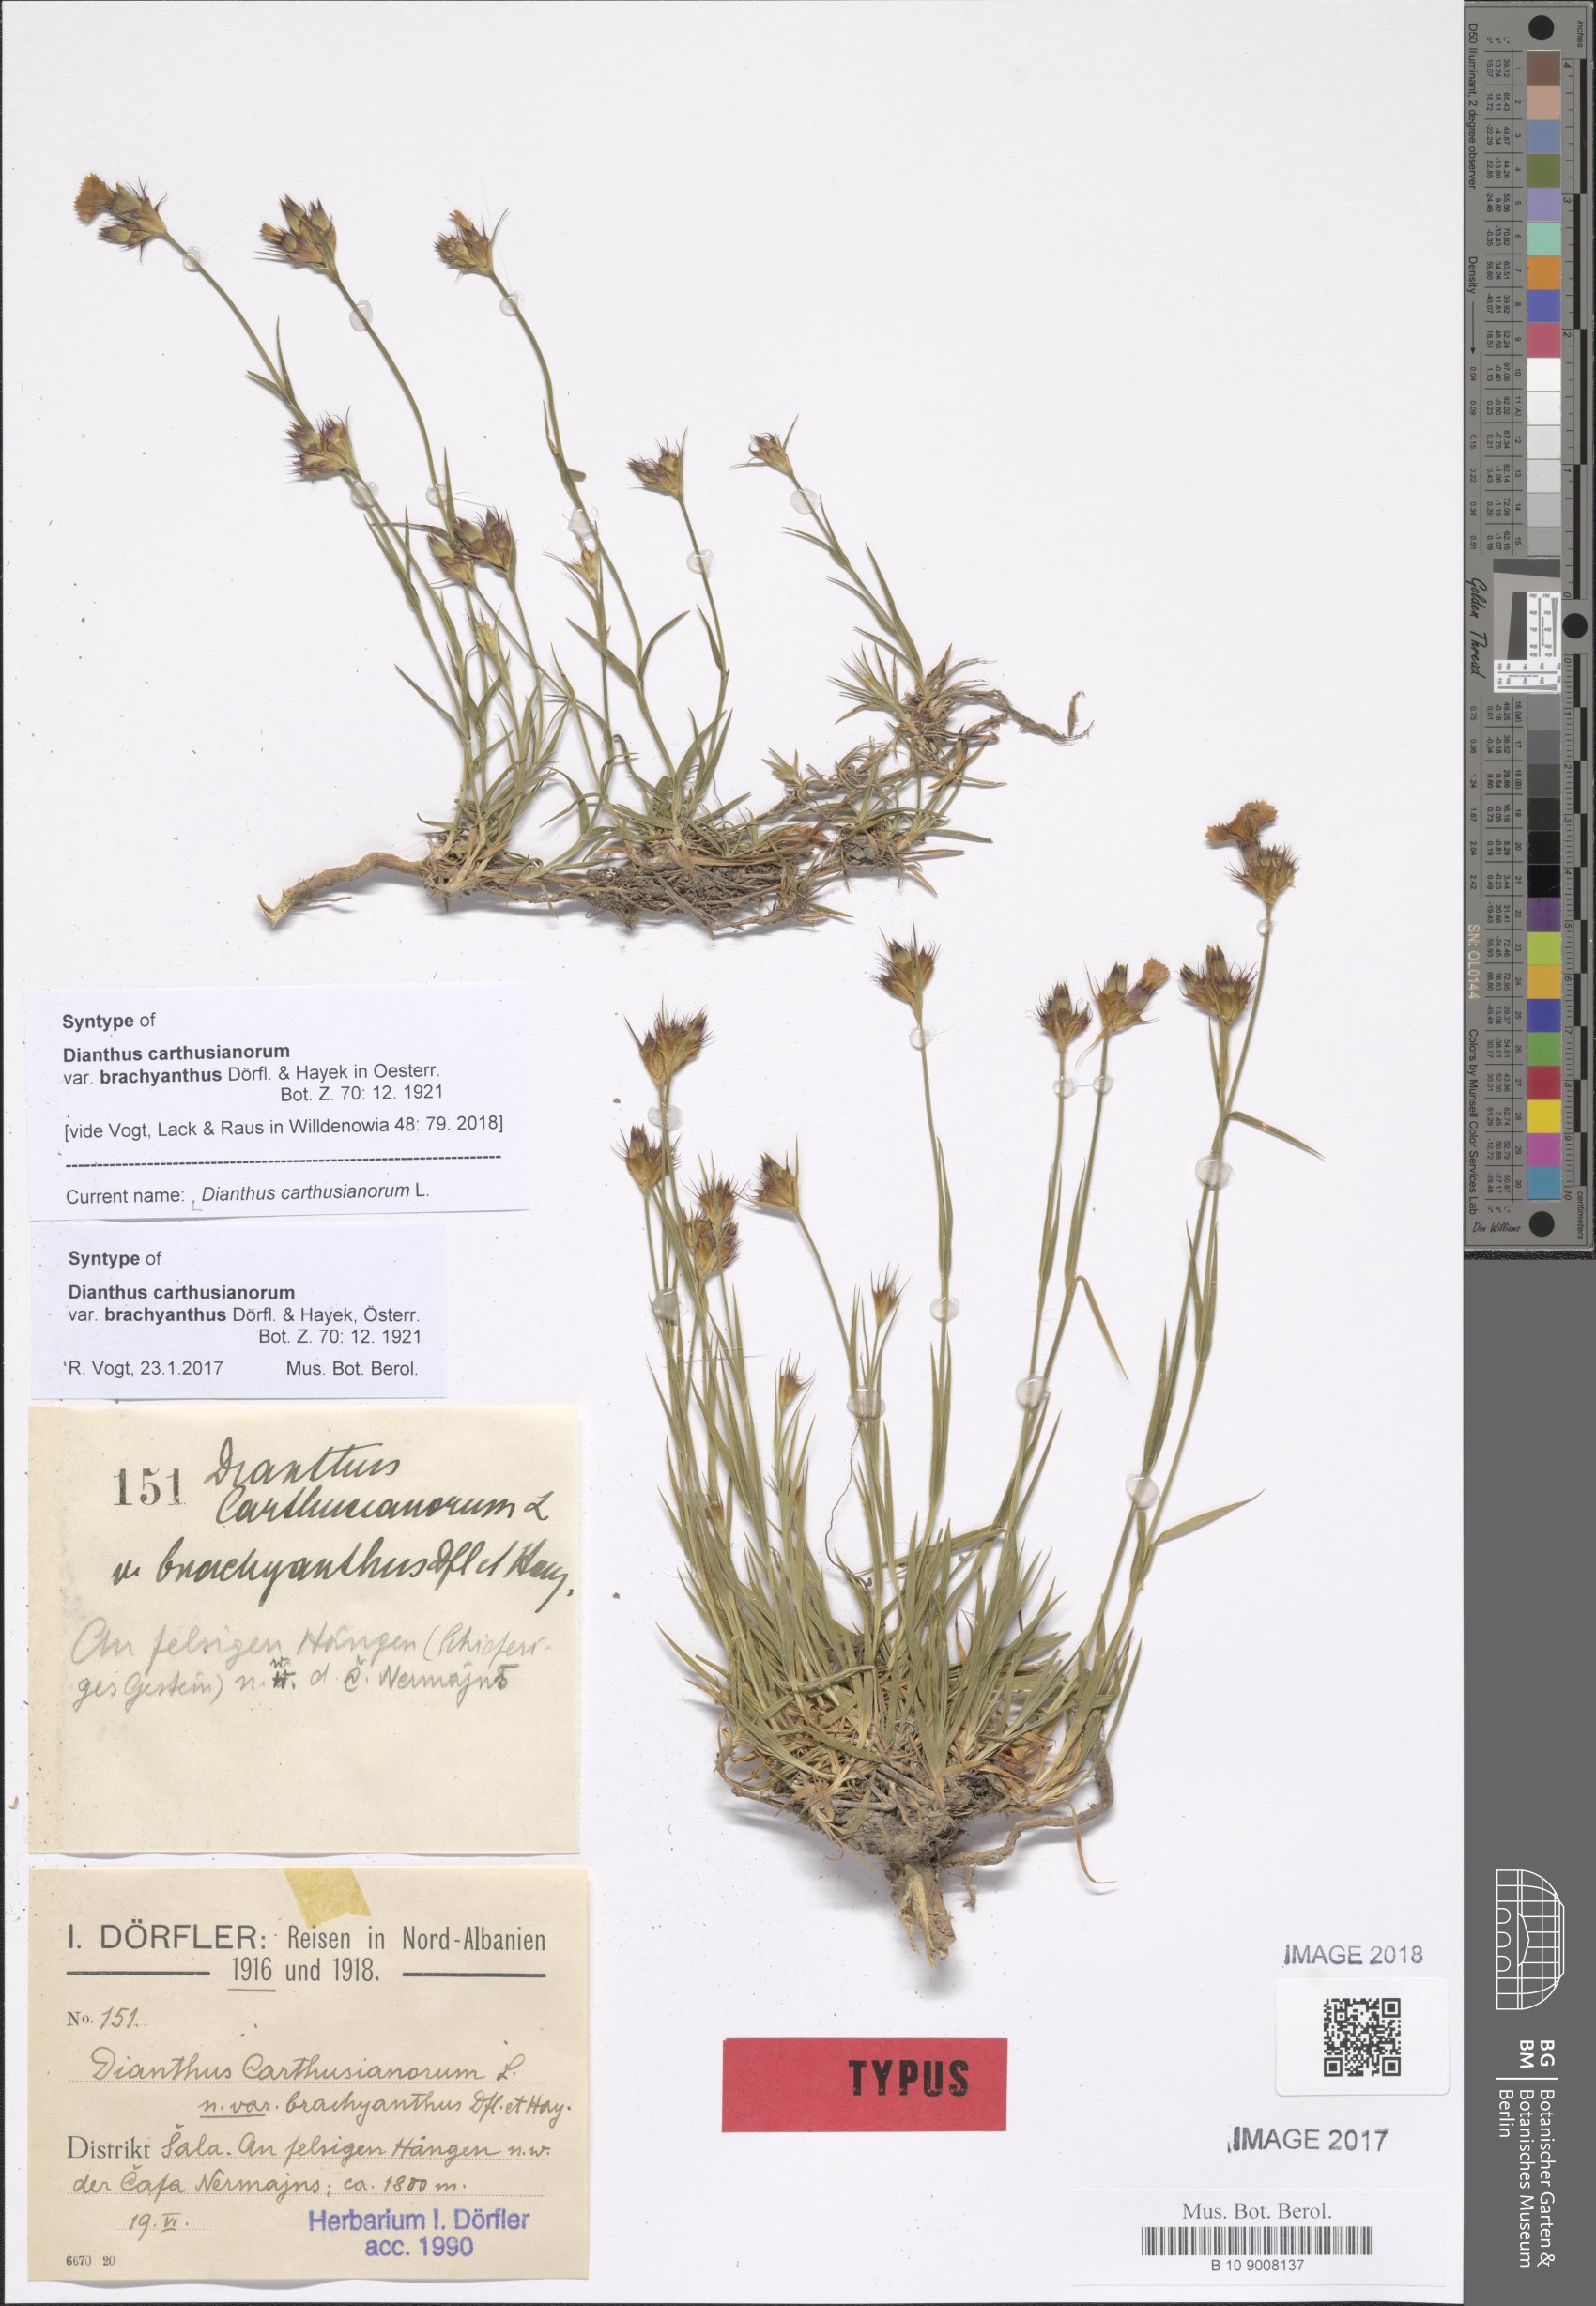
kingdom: Plantae
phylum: Tracheophyta
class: Magnoliopsida
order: Caryophyllales
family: Caryophyllaceae
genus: Dianthus
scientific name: Dianthus carthusianorum
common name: Carthusian pink
